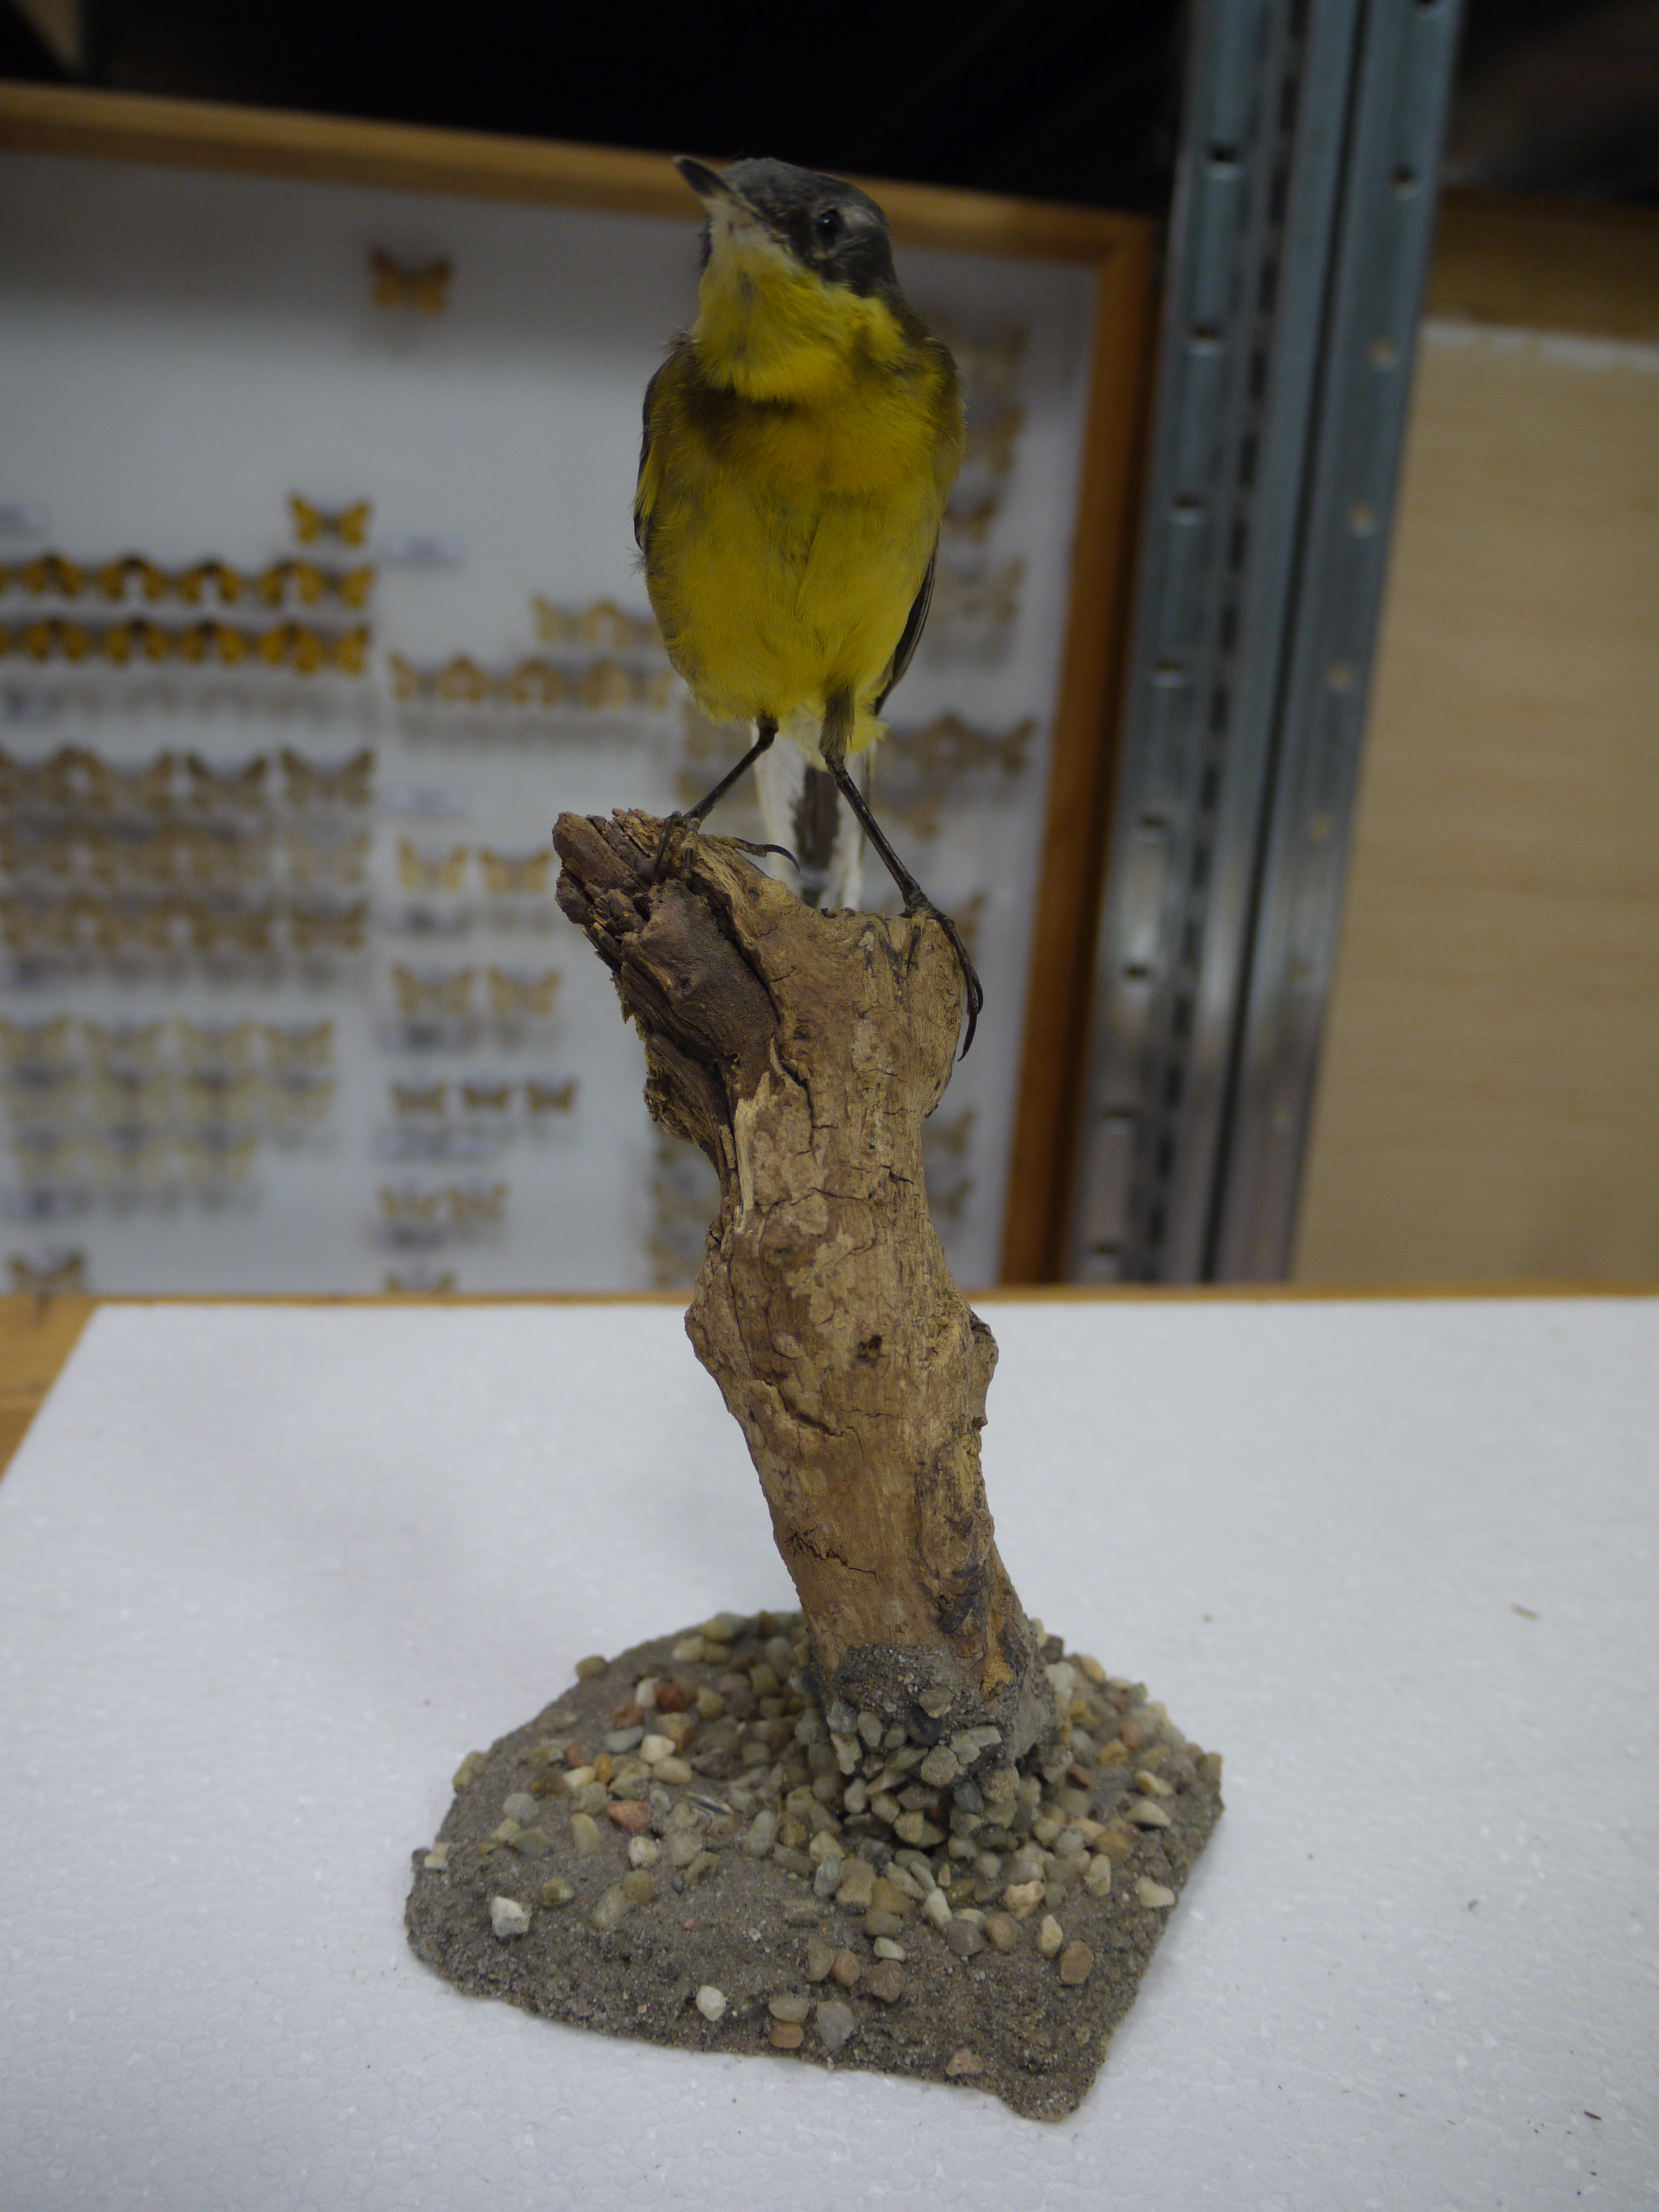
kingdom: Animalia
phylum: Chordata
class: Aves
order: Passeriformes
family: Motacillidae
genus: Motacilla
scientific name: Motacilla flava
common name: Western yellow wagtail
